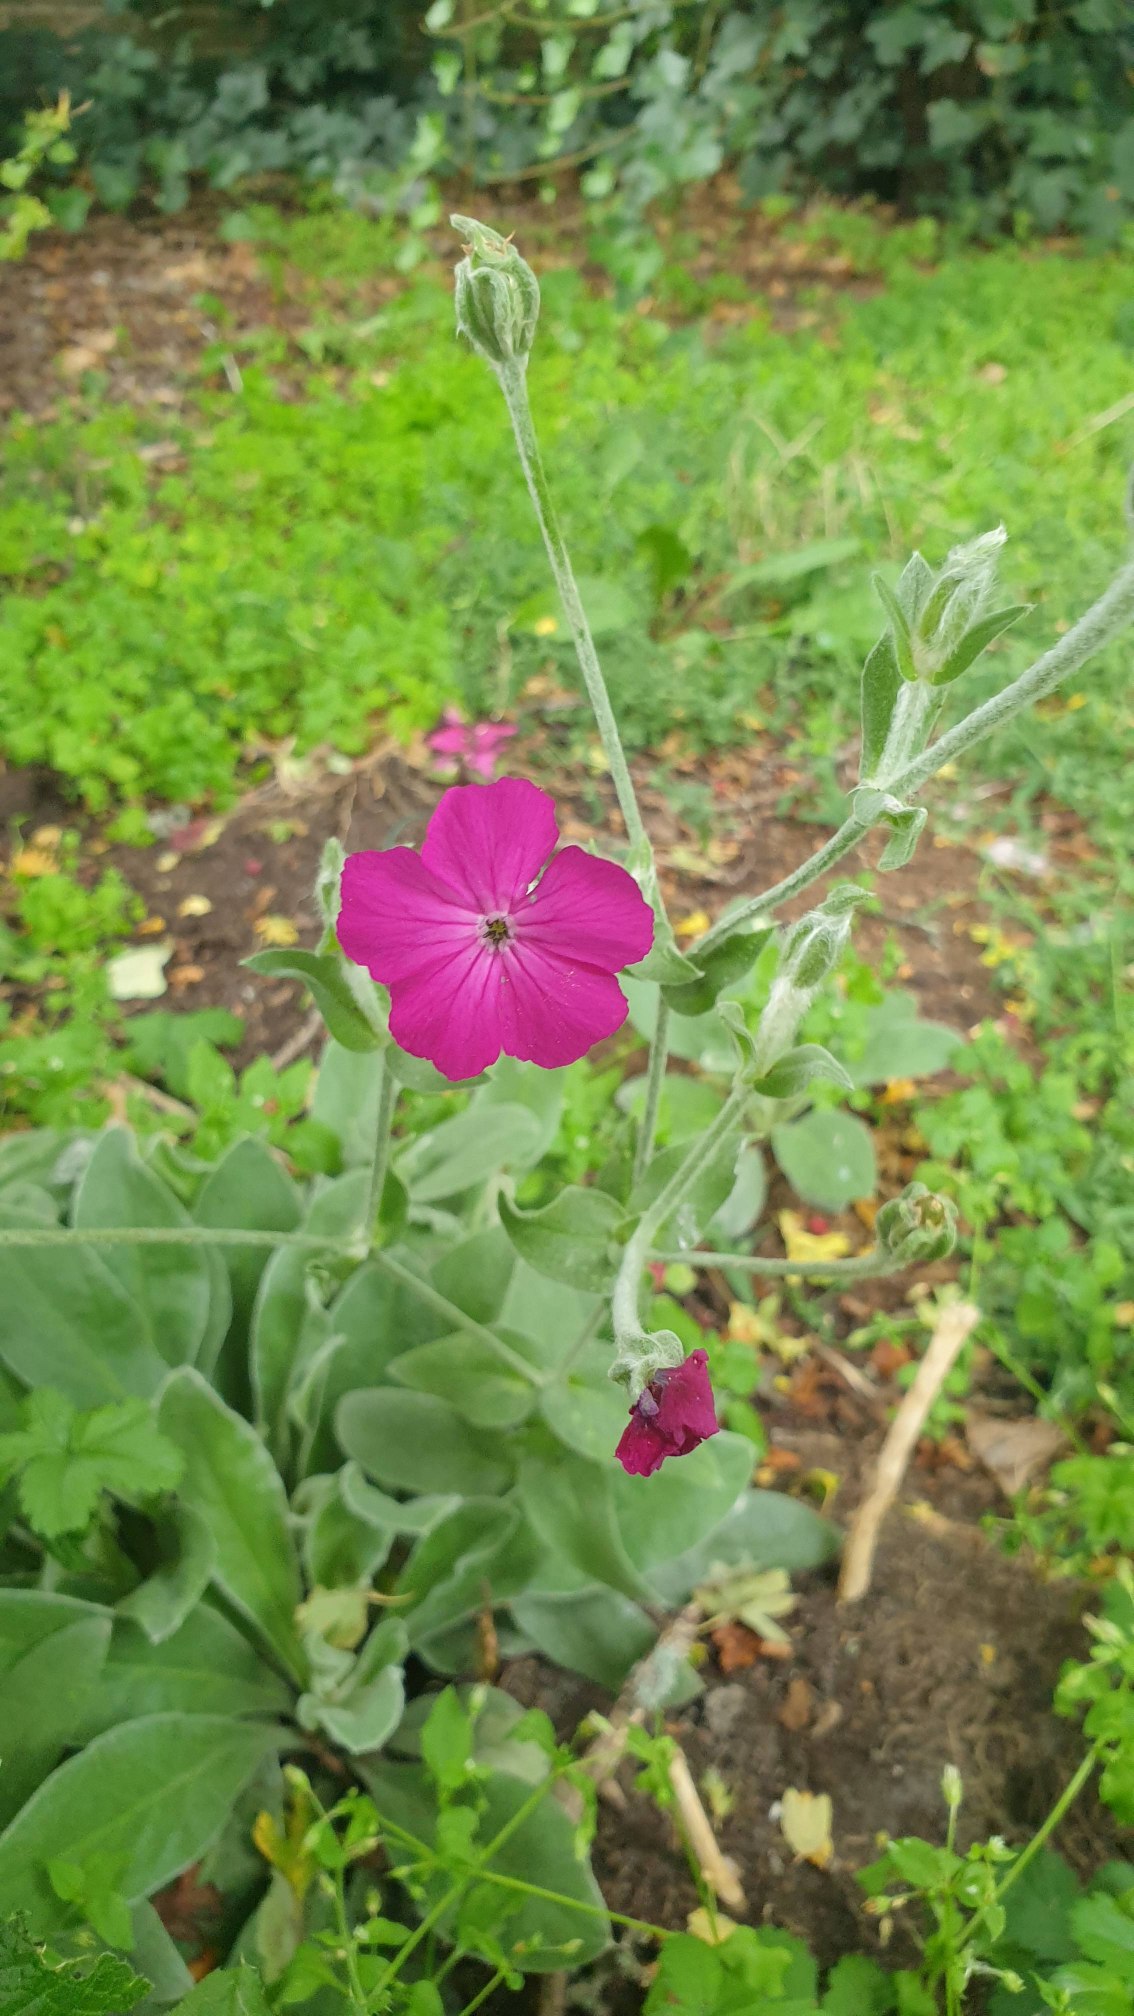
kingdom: Plantae
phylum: Tracheophyta
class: Magnoliopsida
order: Caryophyllales
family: Caryophyllaceae
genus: Silene
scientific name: Silene coronaria
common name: Fiksernellike
